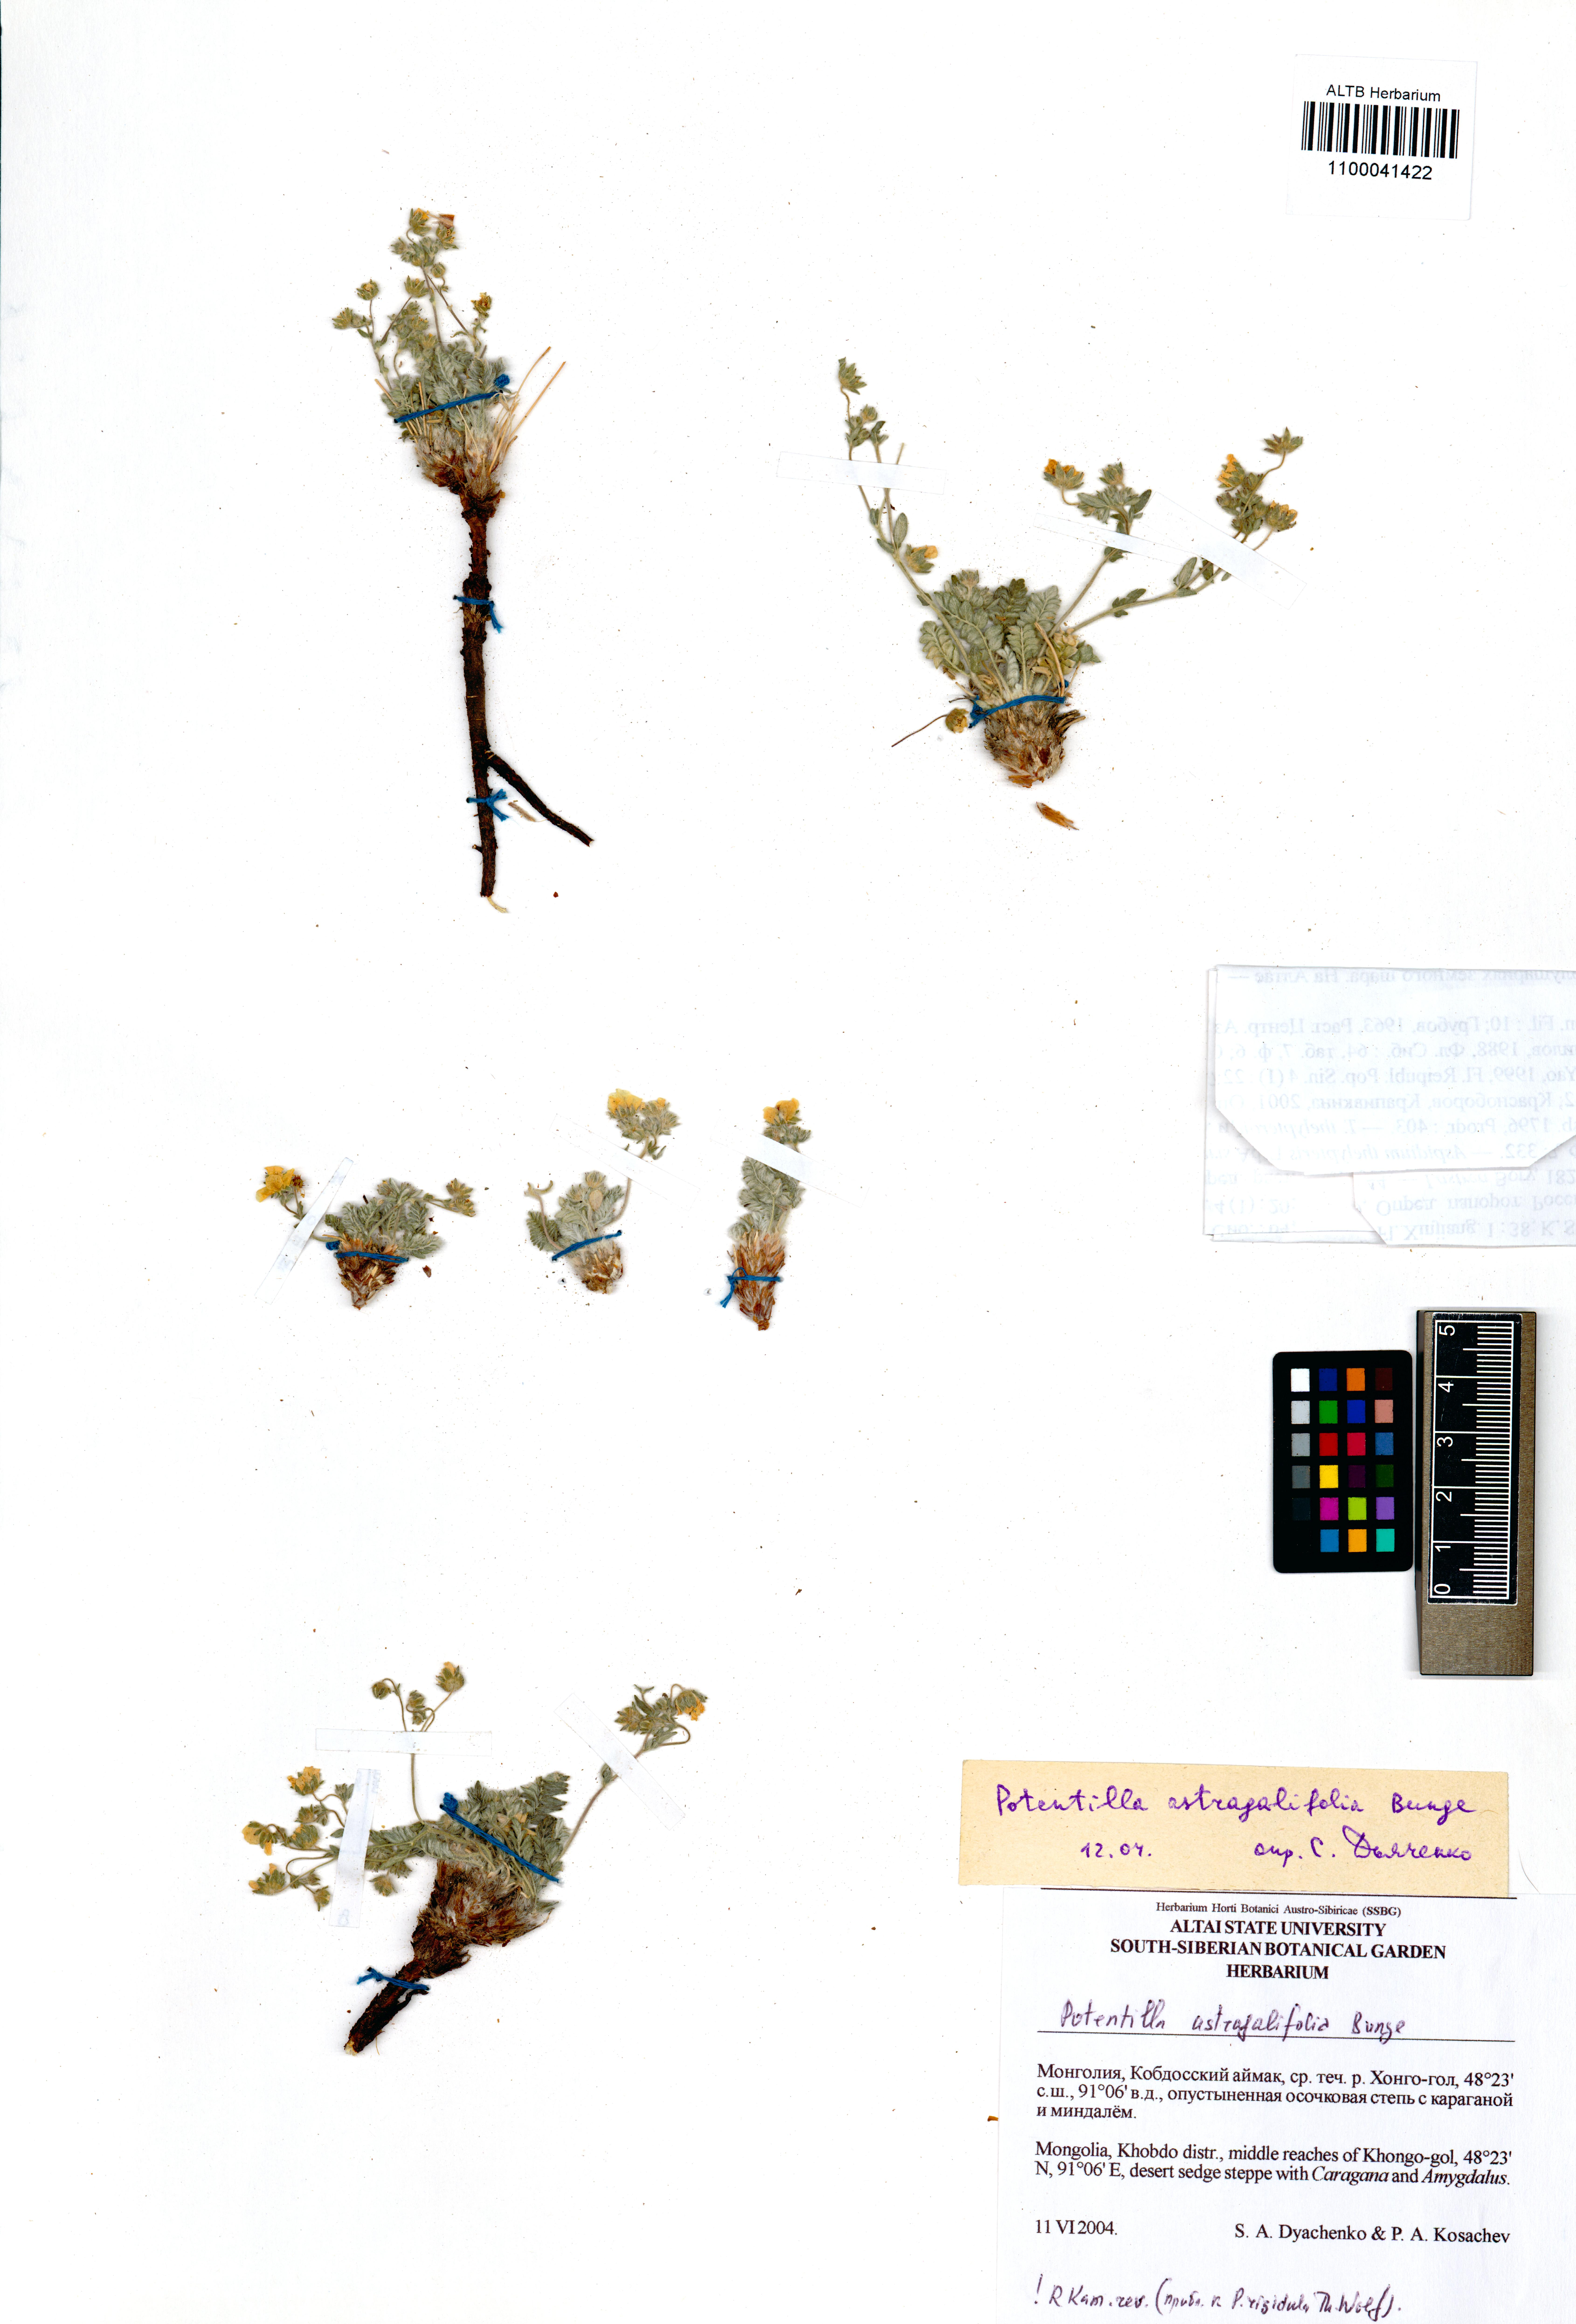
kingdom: Plantae
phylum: Tracheophyta
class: Magnoliopsida
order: Rosales
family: Rosaceae
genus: Potentilla
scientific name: Potentilla astragalifolia
